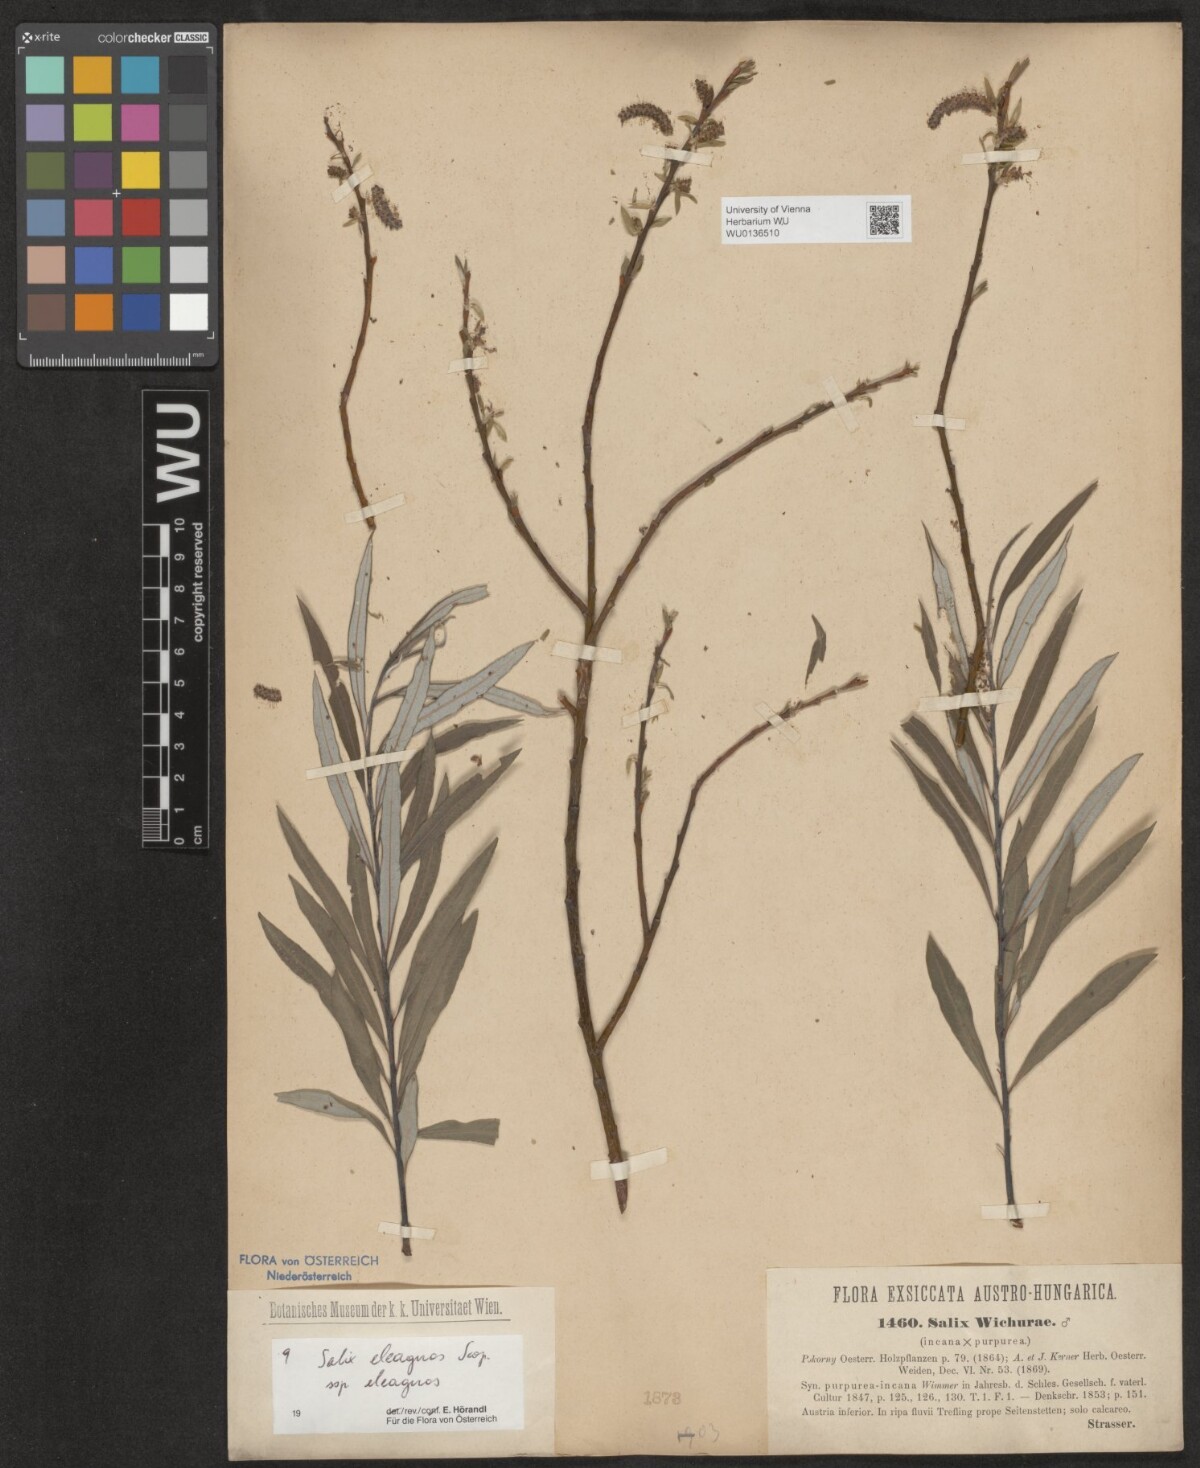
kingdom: Plantae
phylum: Tracheophyta
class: Magnoliopsida
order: Malpighiales
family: Salicaceae
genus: Salix
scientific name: Salix eleagnos
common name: Elaeagnus willow
